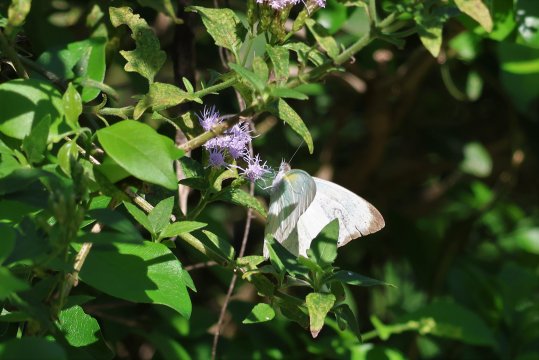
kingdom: Animalia
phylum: Arthropoda
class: Insecta
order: Lepidoptera
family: Pieridae
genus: Glutophrissa
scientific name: Glutophrissa drusilla
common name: Florida White
